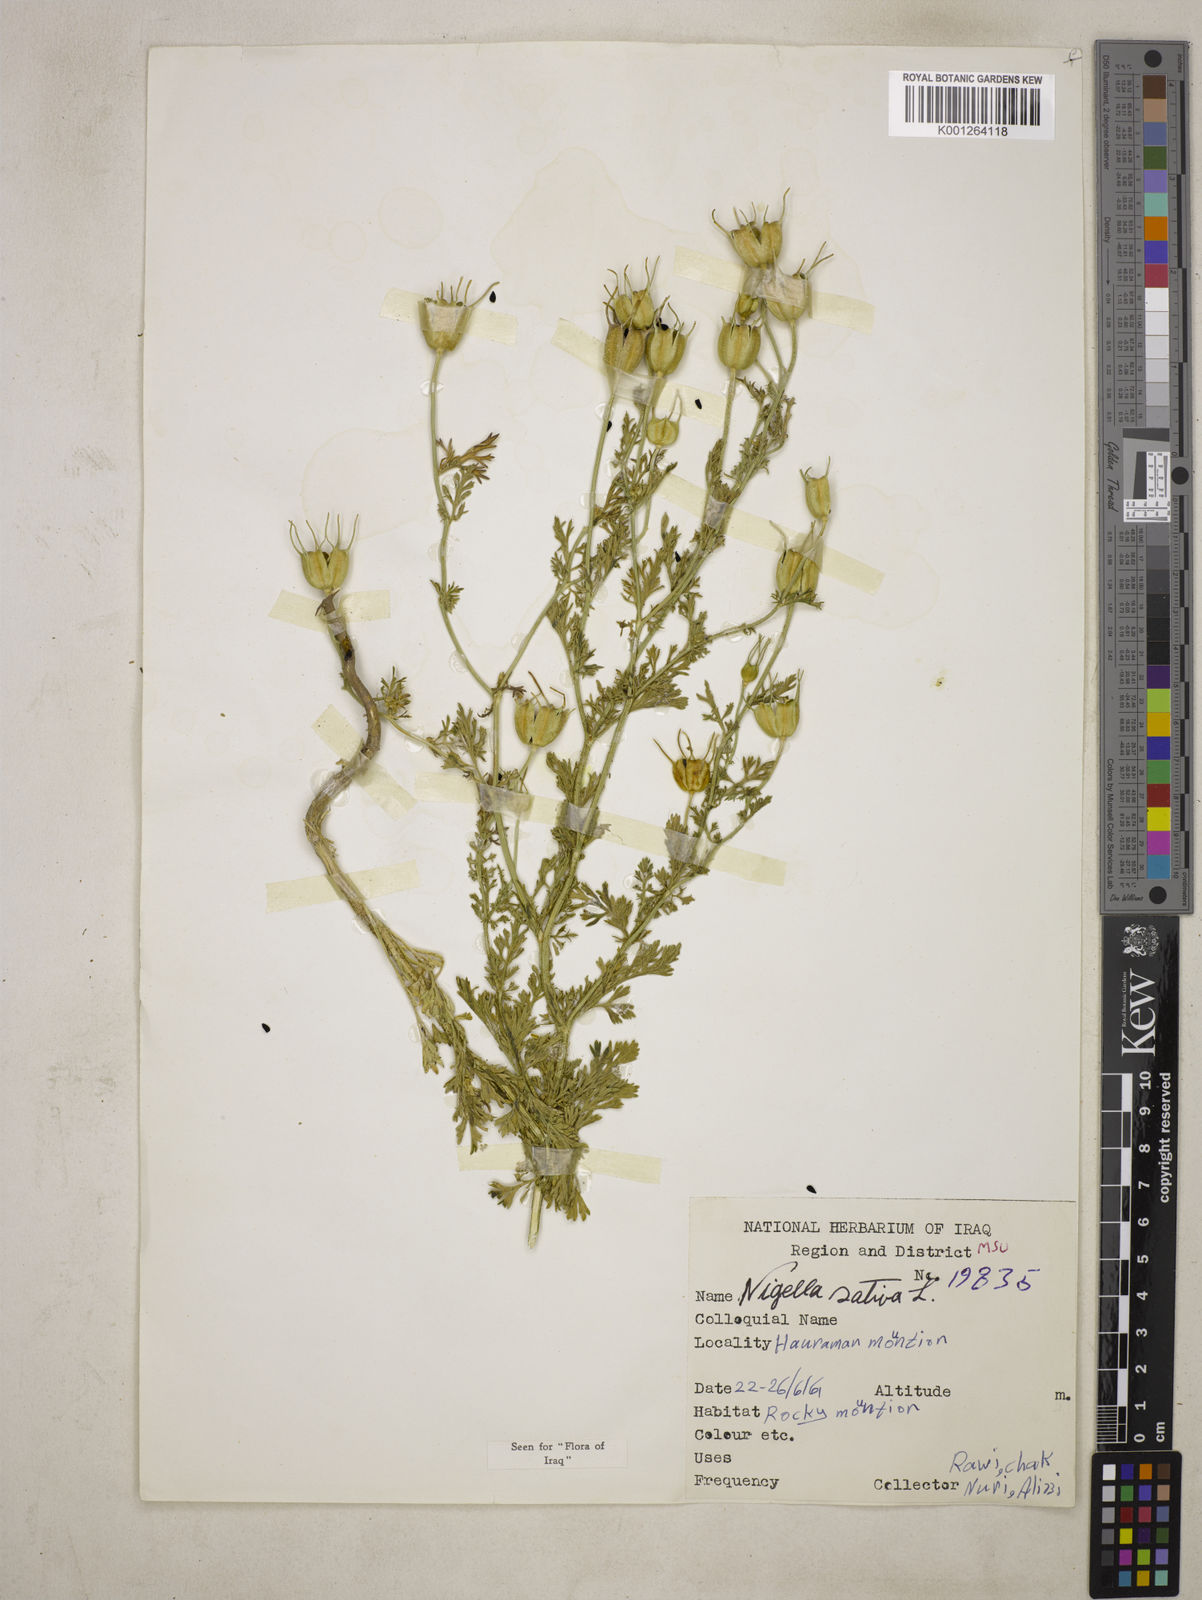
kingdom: Plantae
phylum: Tracheophyta
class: Magnoliopsida
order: Ranunculales
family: Ranunculaceae
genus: Nigella
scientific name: Nigella sativa
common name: Black-cumin
